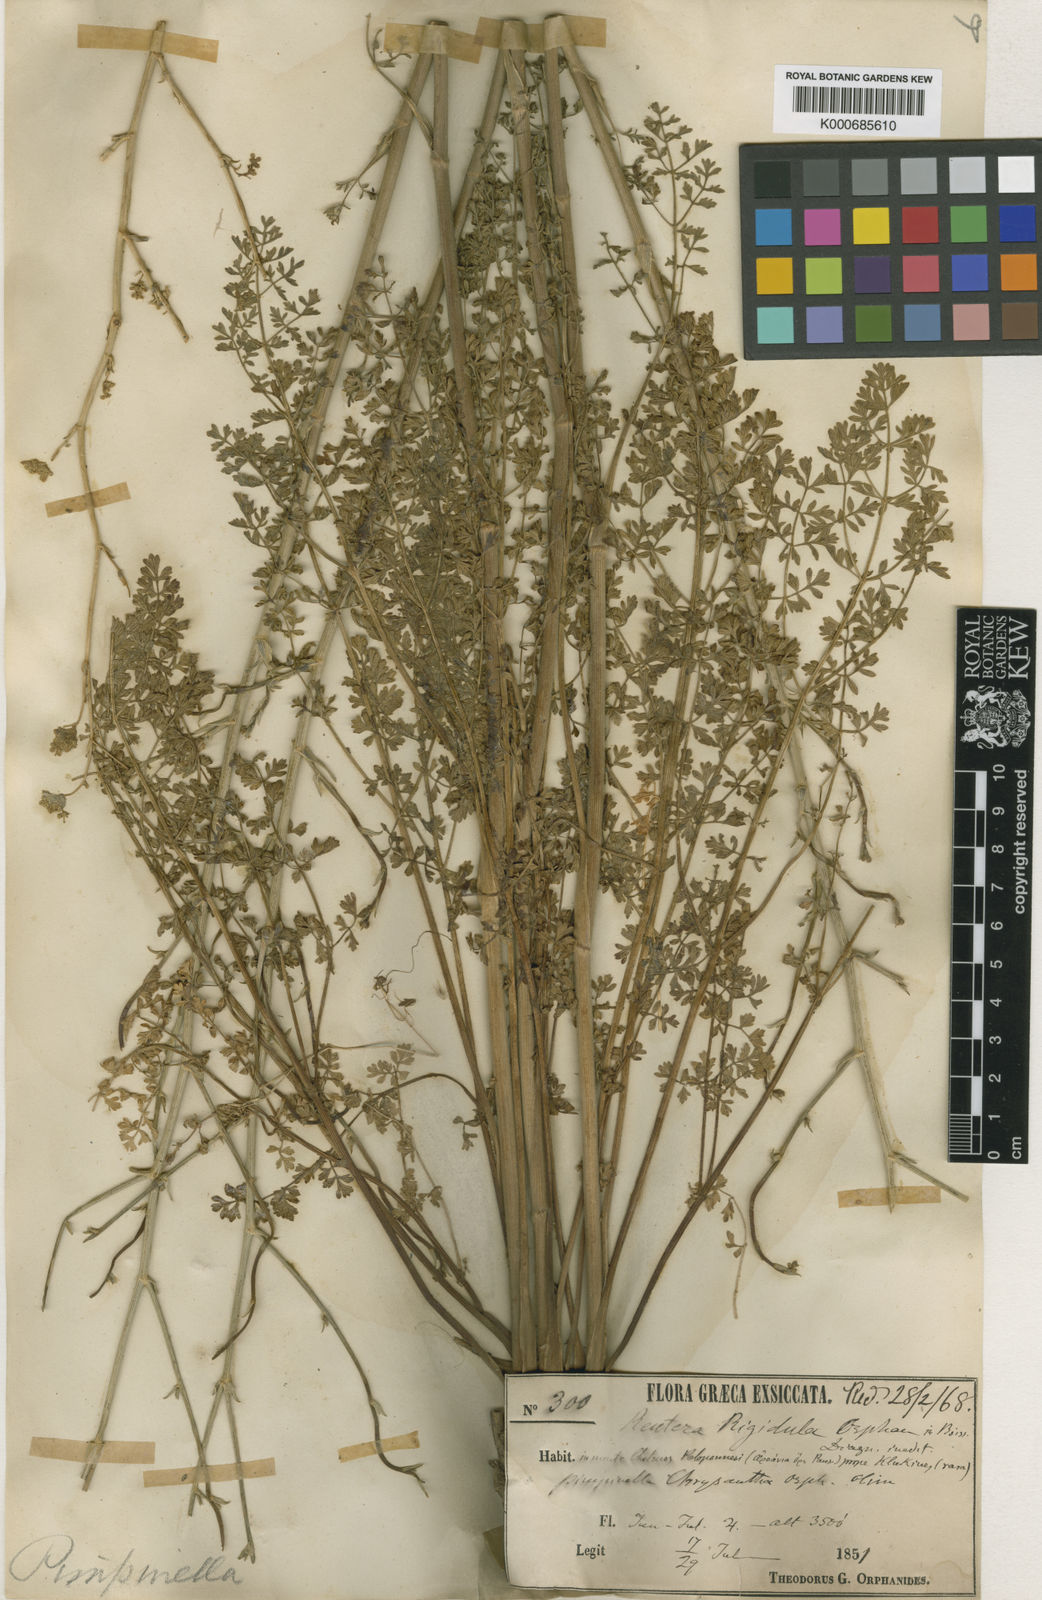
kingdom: Plantae
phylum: Tracheophyta
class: Magnoliopsida
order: Apiales
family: Apiaceae
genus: Pimpinella
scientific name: Pimpinella rigidula
